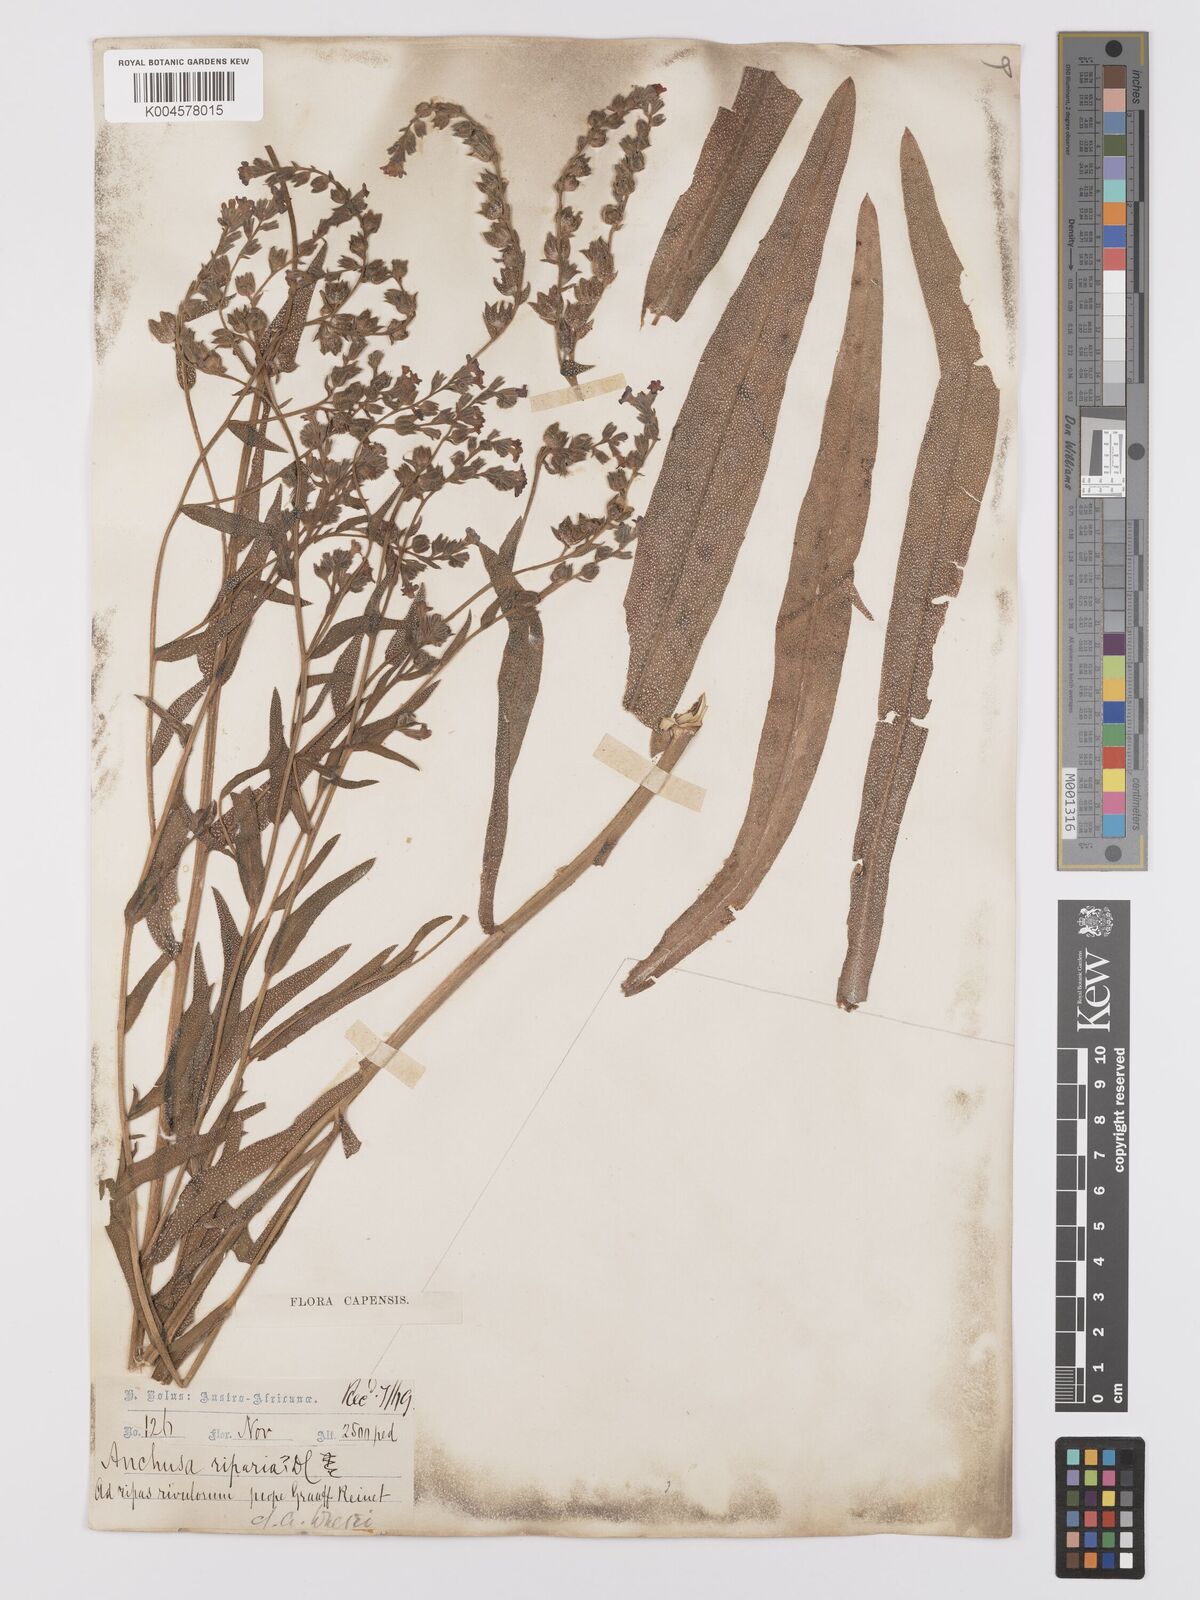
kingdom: Plantae
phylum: Tracheophyta
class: Magnoliopsida
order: Boraginales
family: Boraginaceae
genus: Anchusa
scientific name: Anchusa capensis
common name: Cape bugloss
